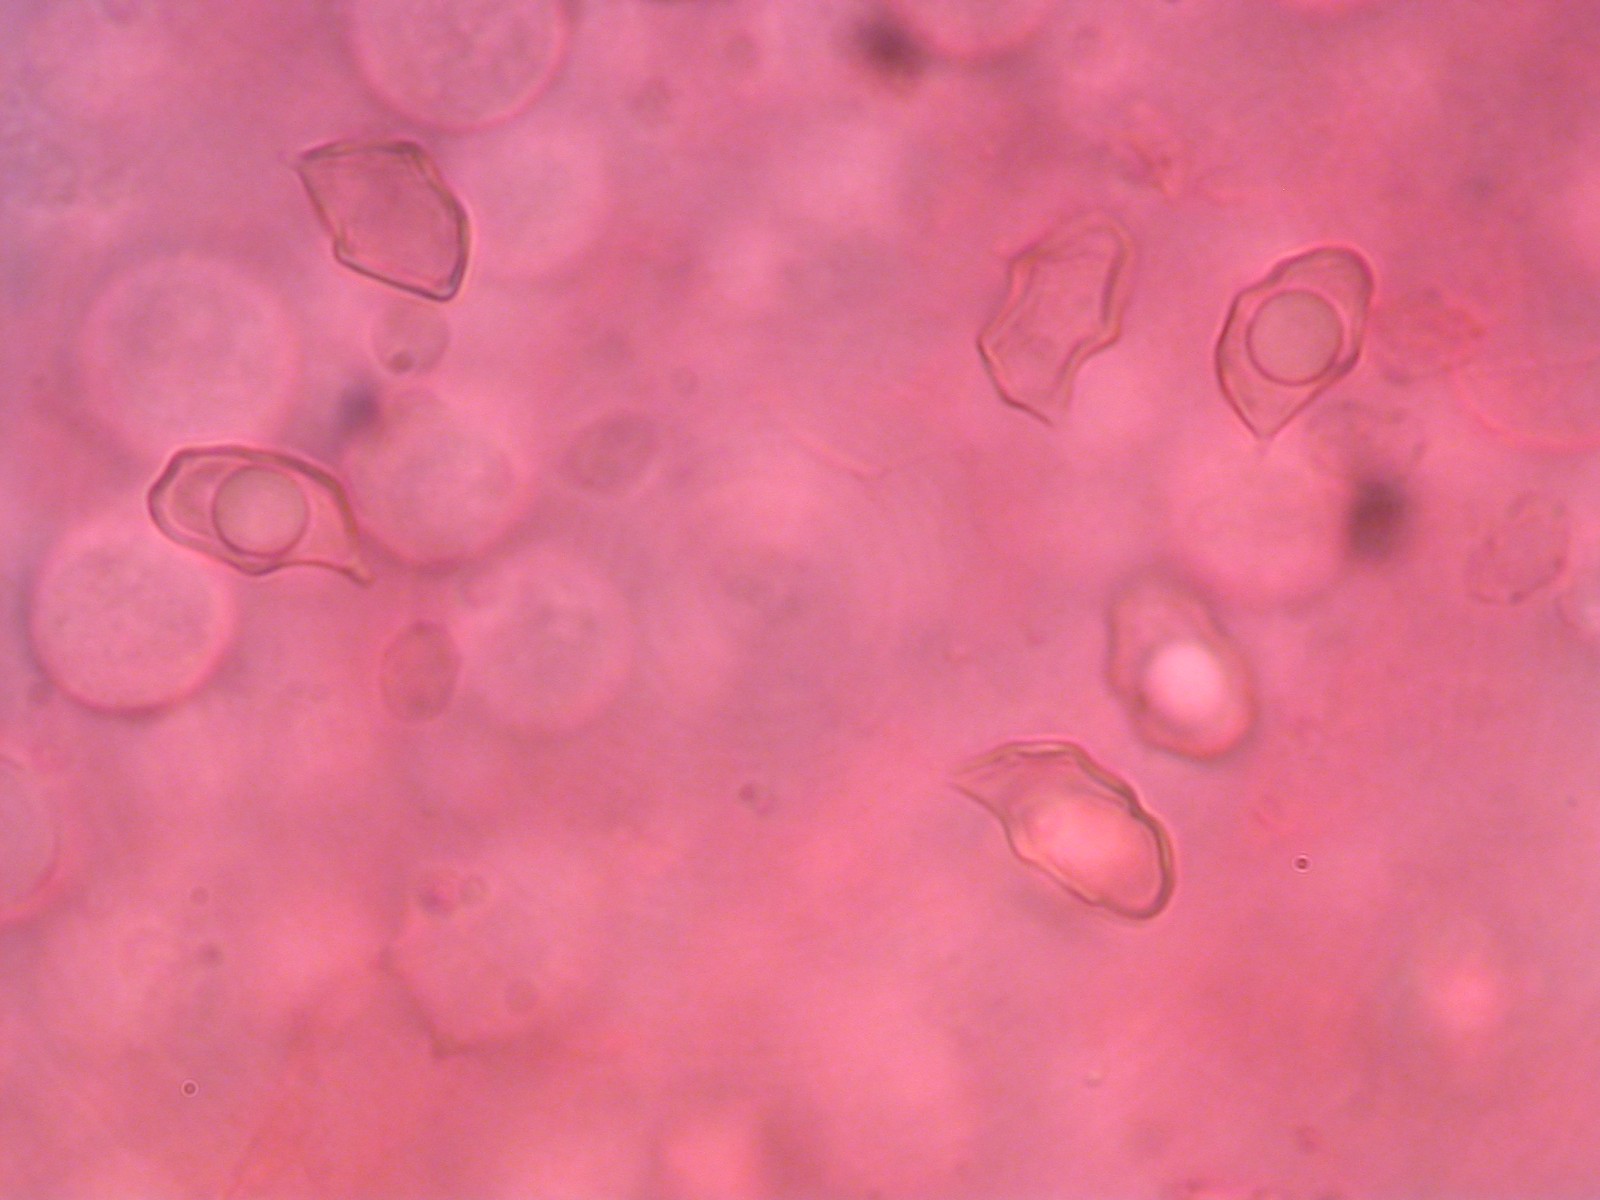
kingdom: Fungi
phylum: Basidiomycota
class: Agaricomycetes
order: Agaricales
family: Entolomataceae
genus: Entoloma
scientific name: Entoloma
